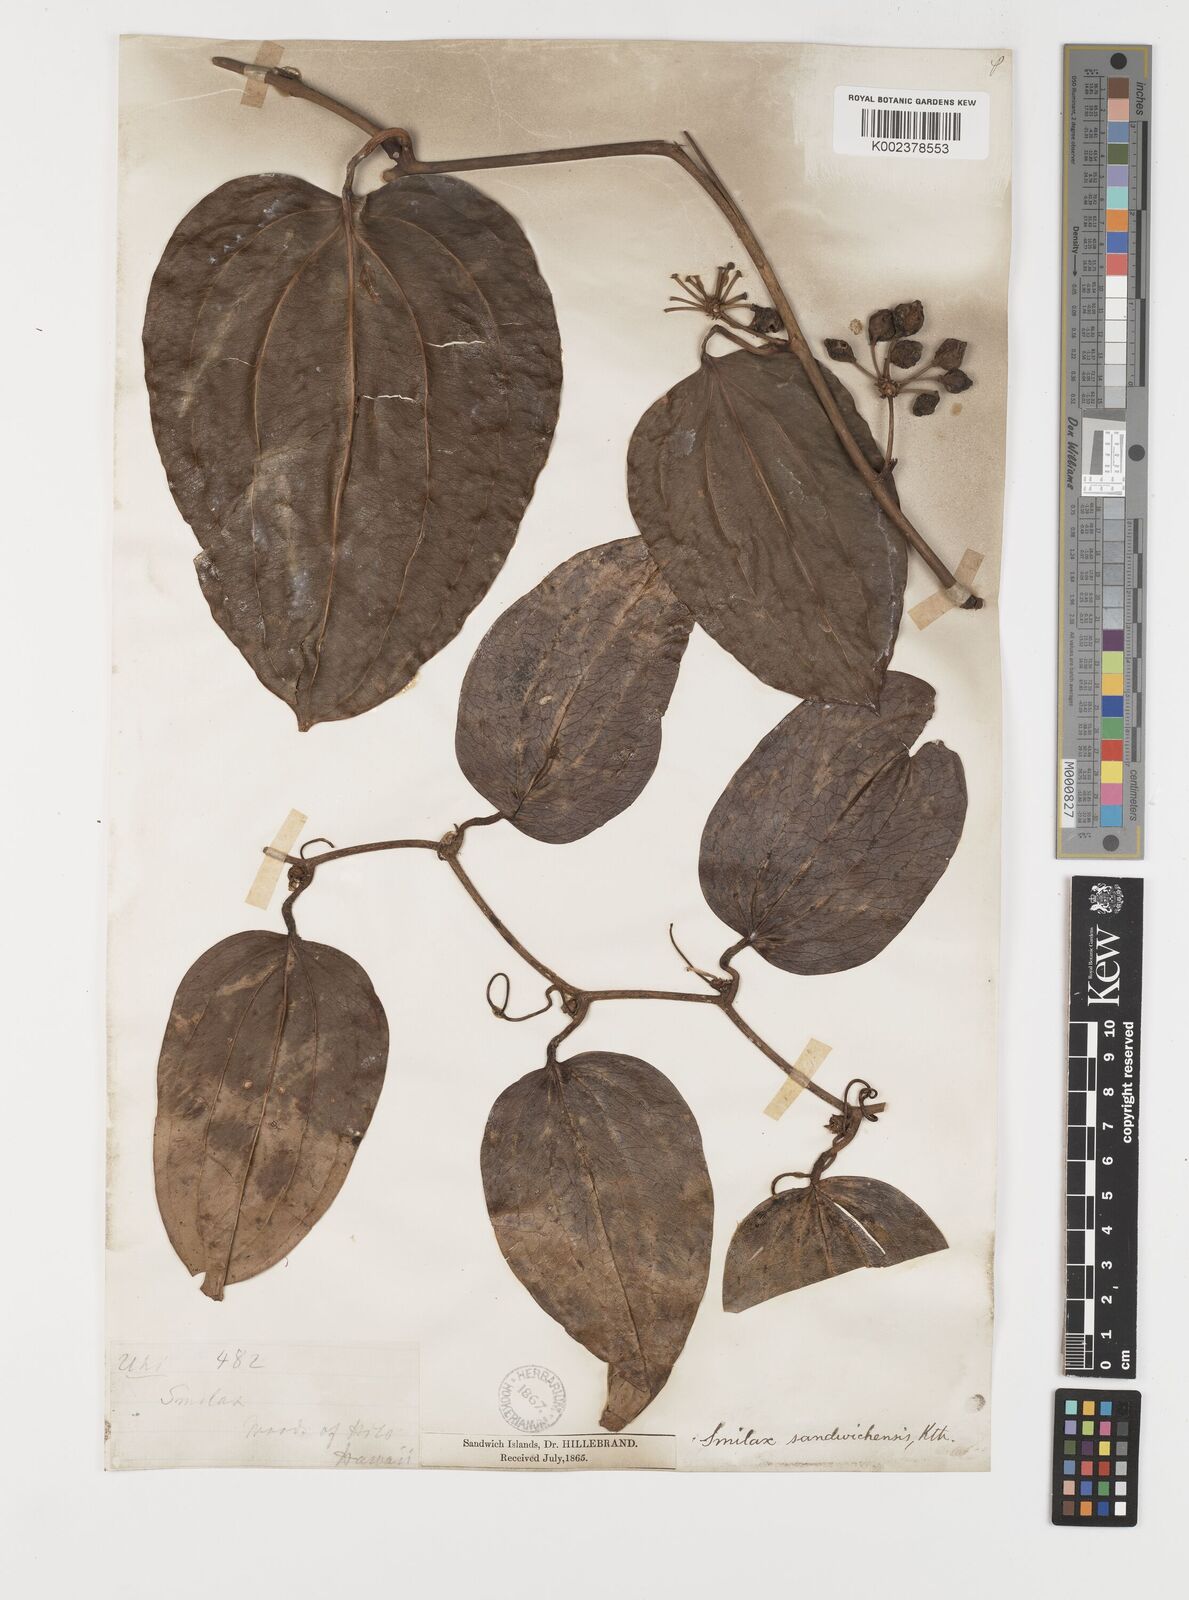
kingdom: Plantae
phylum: Tracheophyta
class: Liliopsida
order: Liliales
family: Smilacaceae
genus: Smilax
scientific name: Smilax melastomifolia
